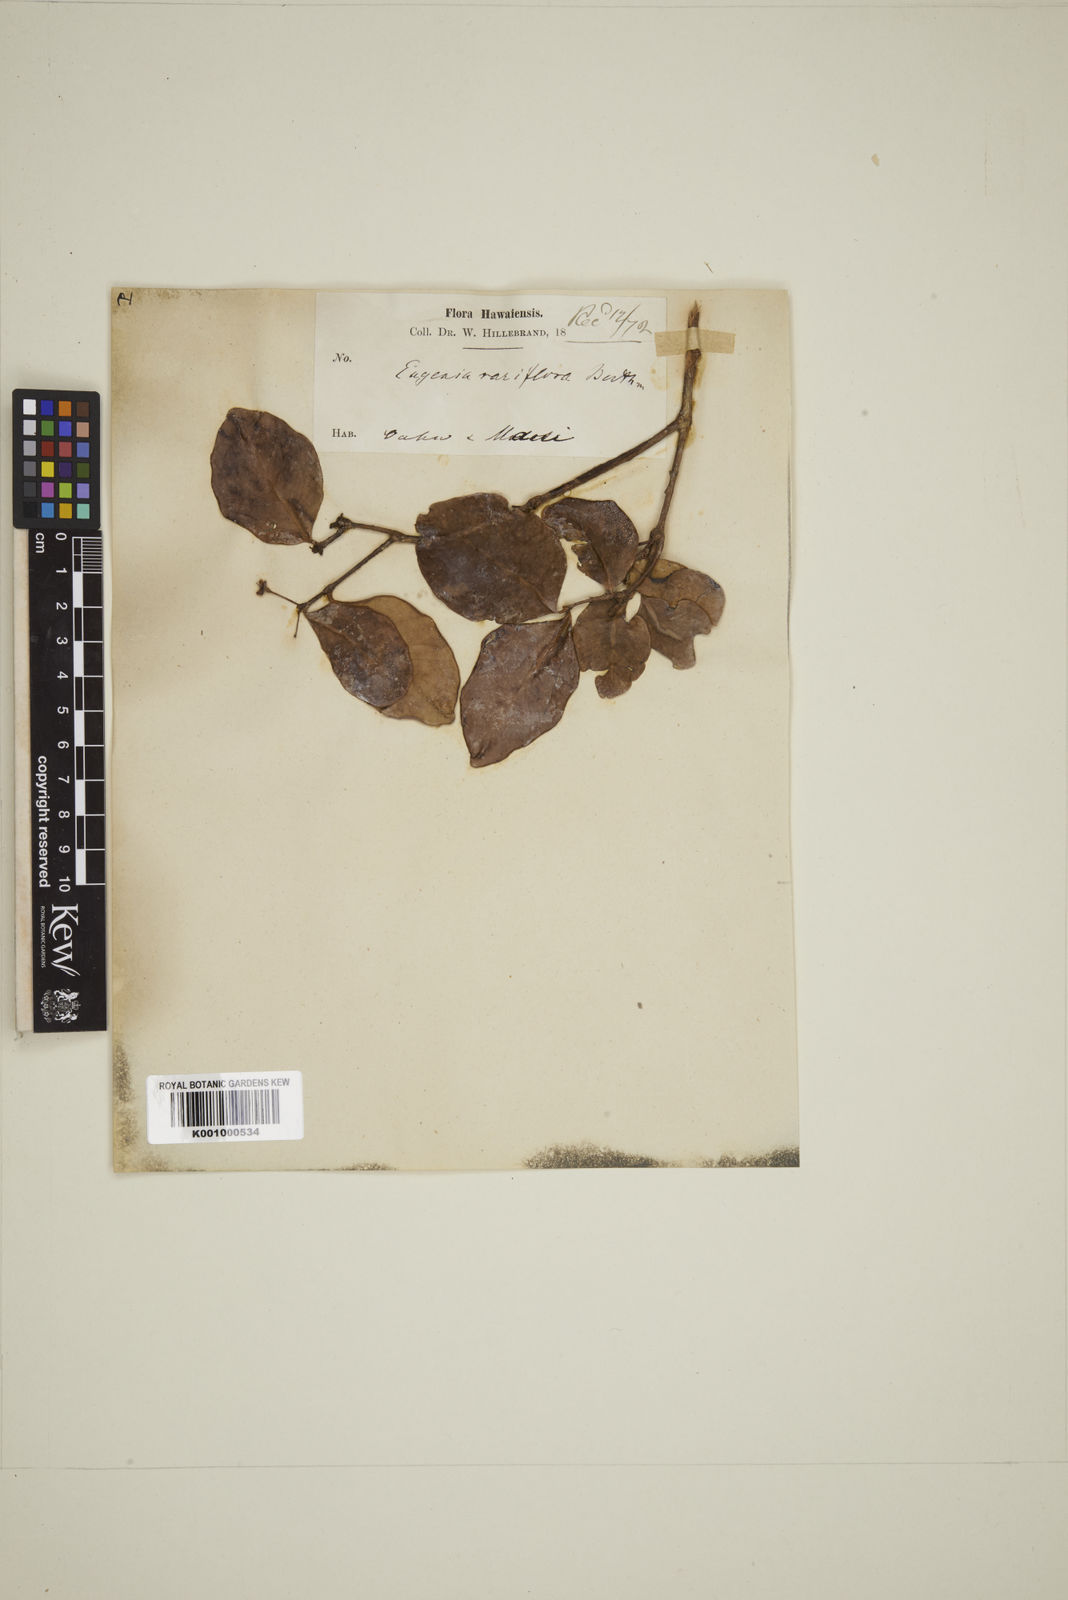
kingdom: Plantae
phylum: Tracheophyta
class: Magnoliopsida
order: Myrtales
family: Myrtaceae
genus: Eugenia
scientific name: Eugenia reinwardtiana
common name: Cedar bay-cherry
